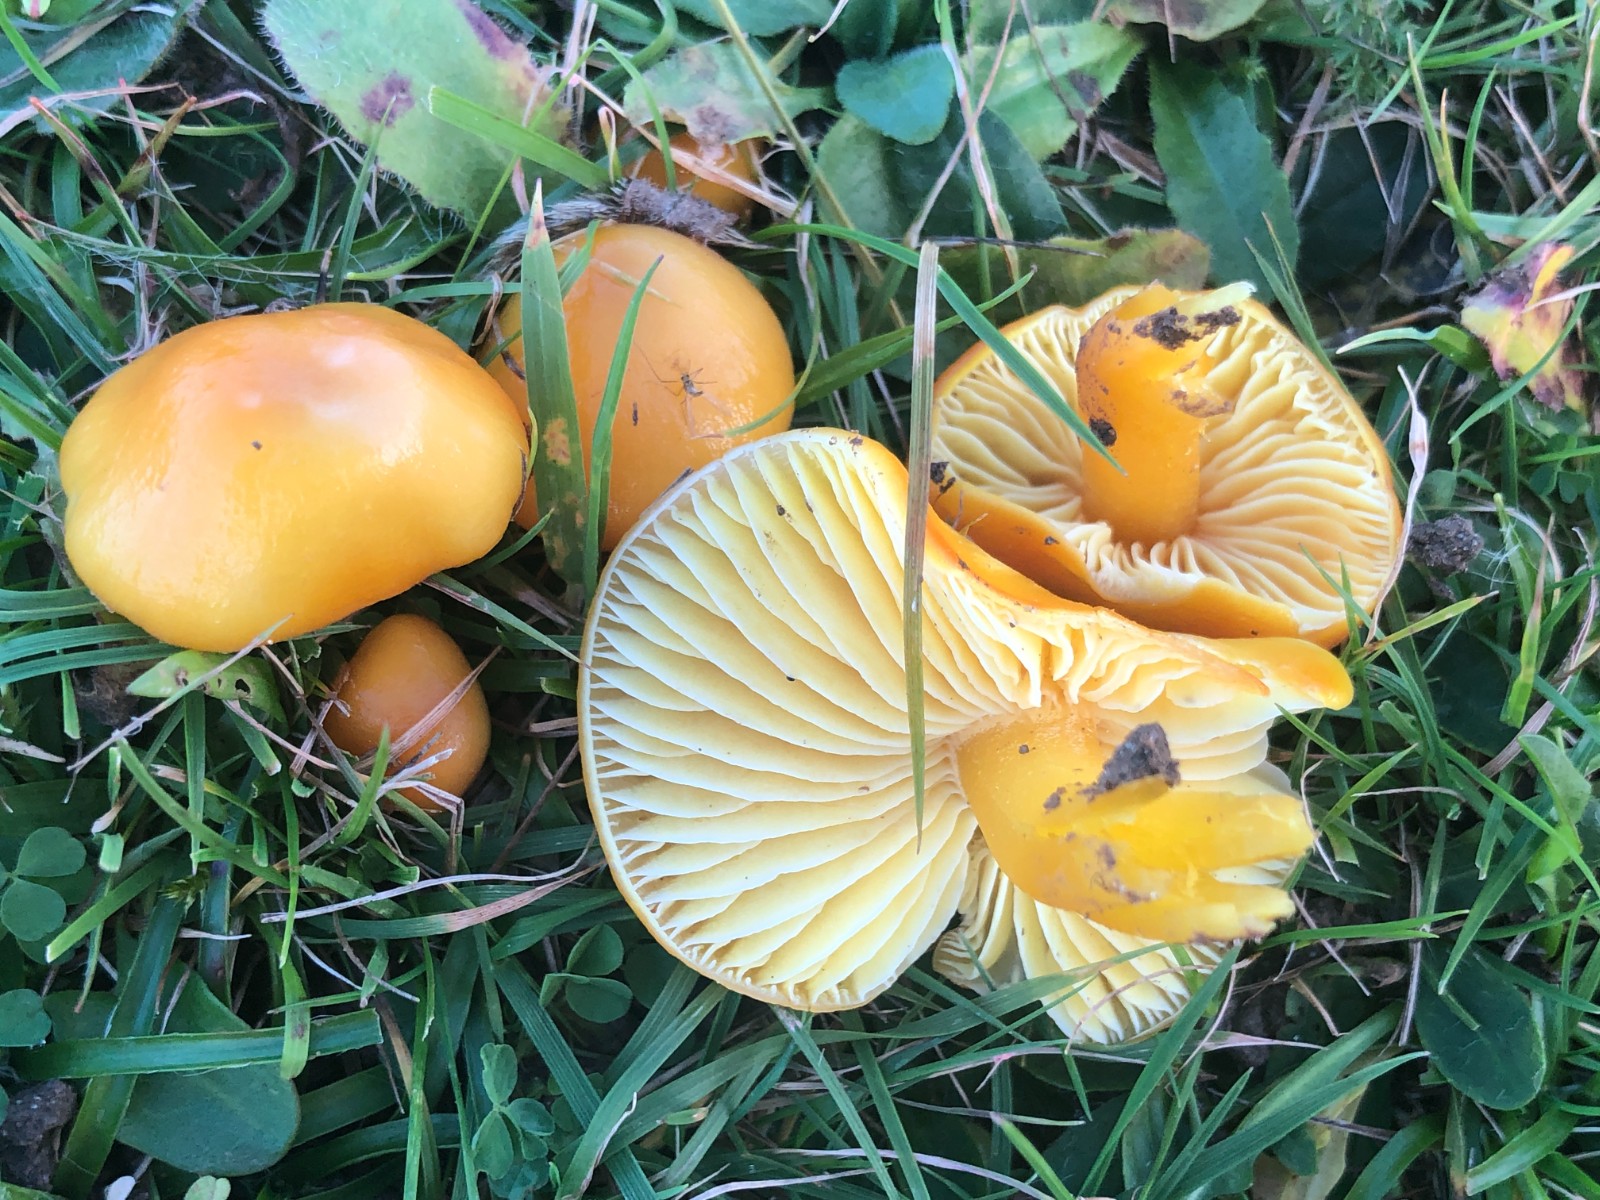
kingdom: Fungi
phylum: Basidiomycota
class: Agaricomycetes
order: Agaricales
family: Hygrophoraceae
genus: Hygrocybe
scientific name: Hygrocybe chlorophana
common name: gul vokshat
